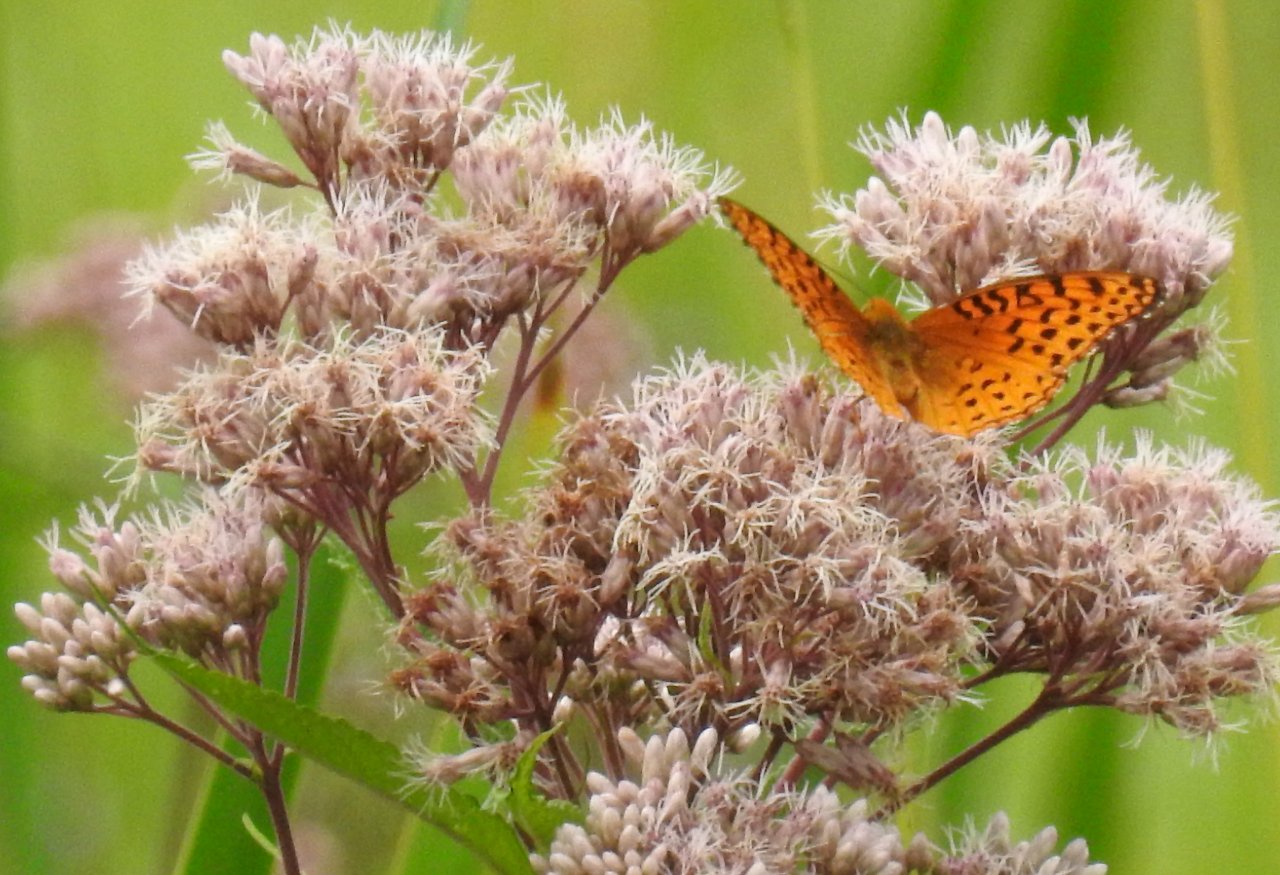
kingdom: Animalia
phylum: Arthropoda
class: Insecta
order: Lepidoptera
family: Nymphalidae
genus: Speyeria
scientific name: Speyeria aphrodite
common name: Aphrodite Fritillary
